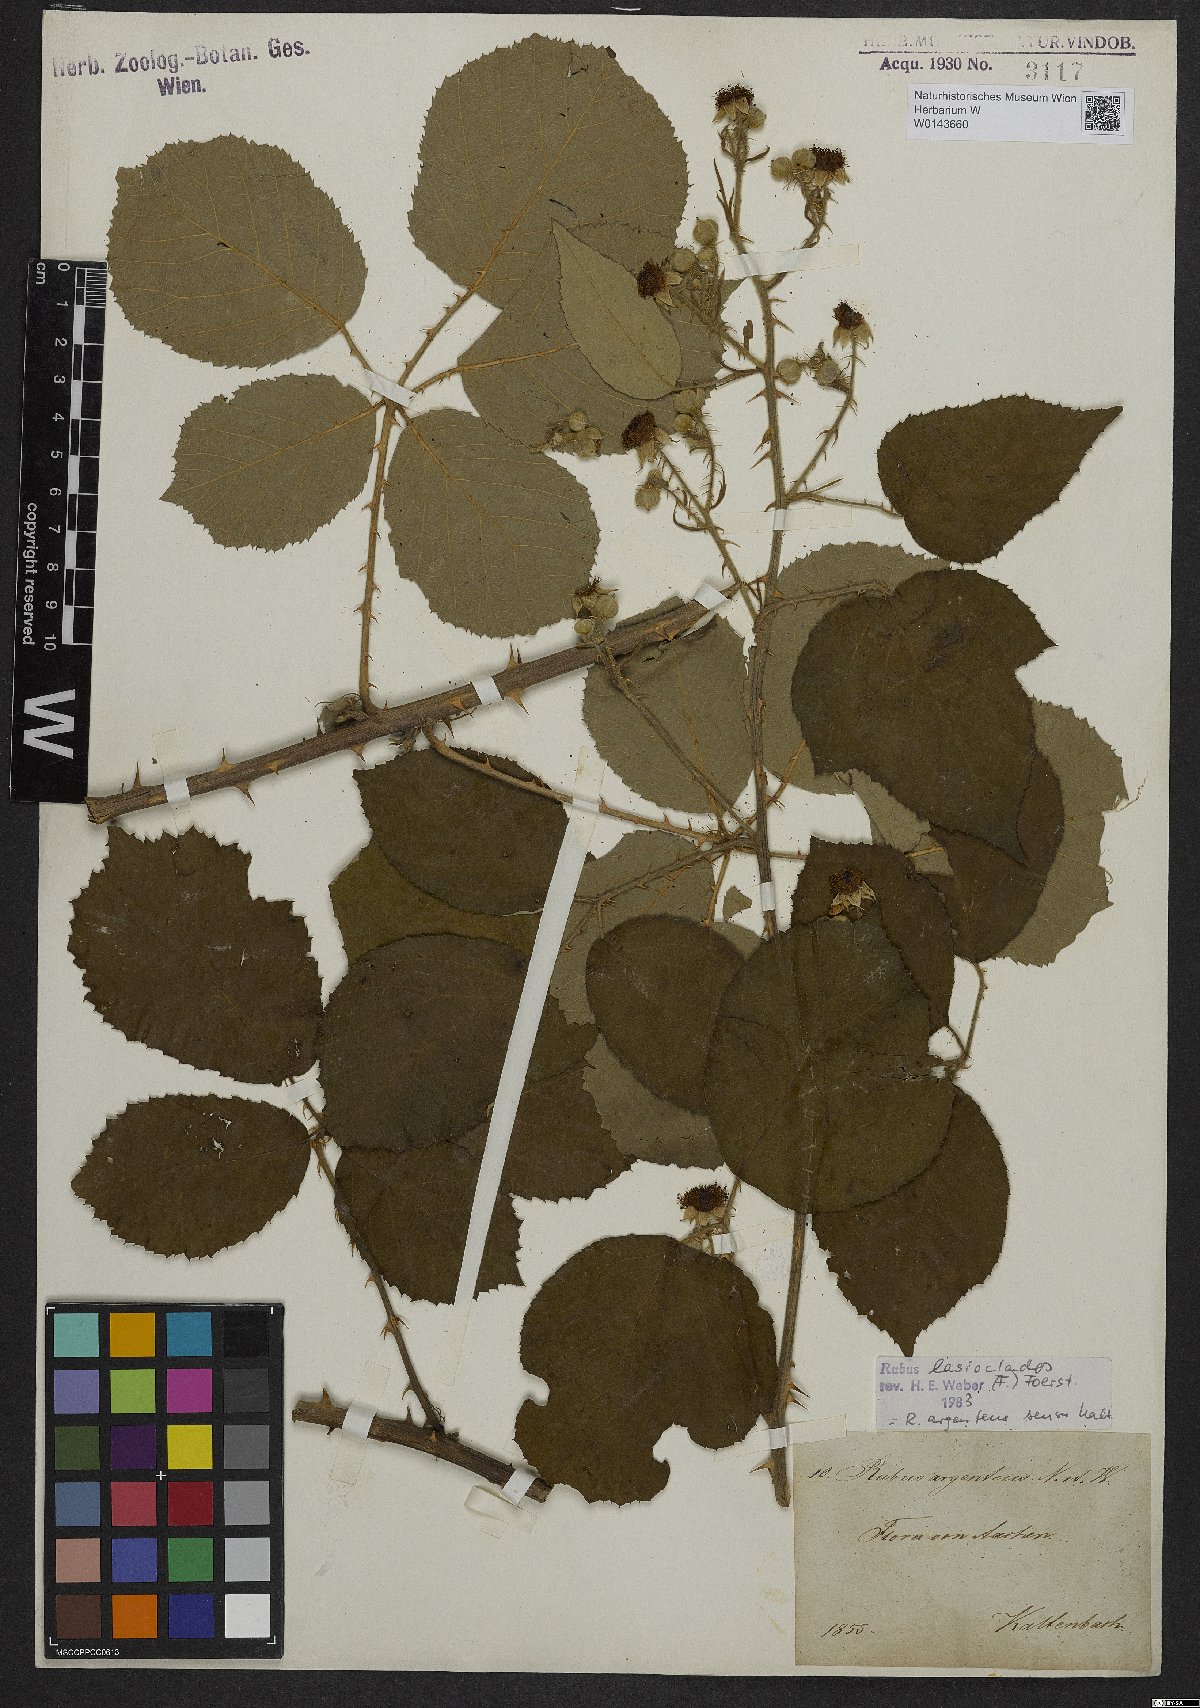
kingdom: Plantae
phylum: Tracheophyta
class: Magnoliopsida
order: Rosales
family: Rosaceae
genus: Rubus
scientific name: Rubus aetnicus
